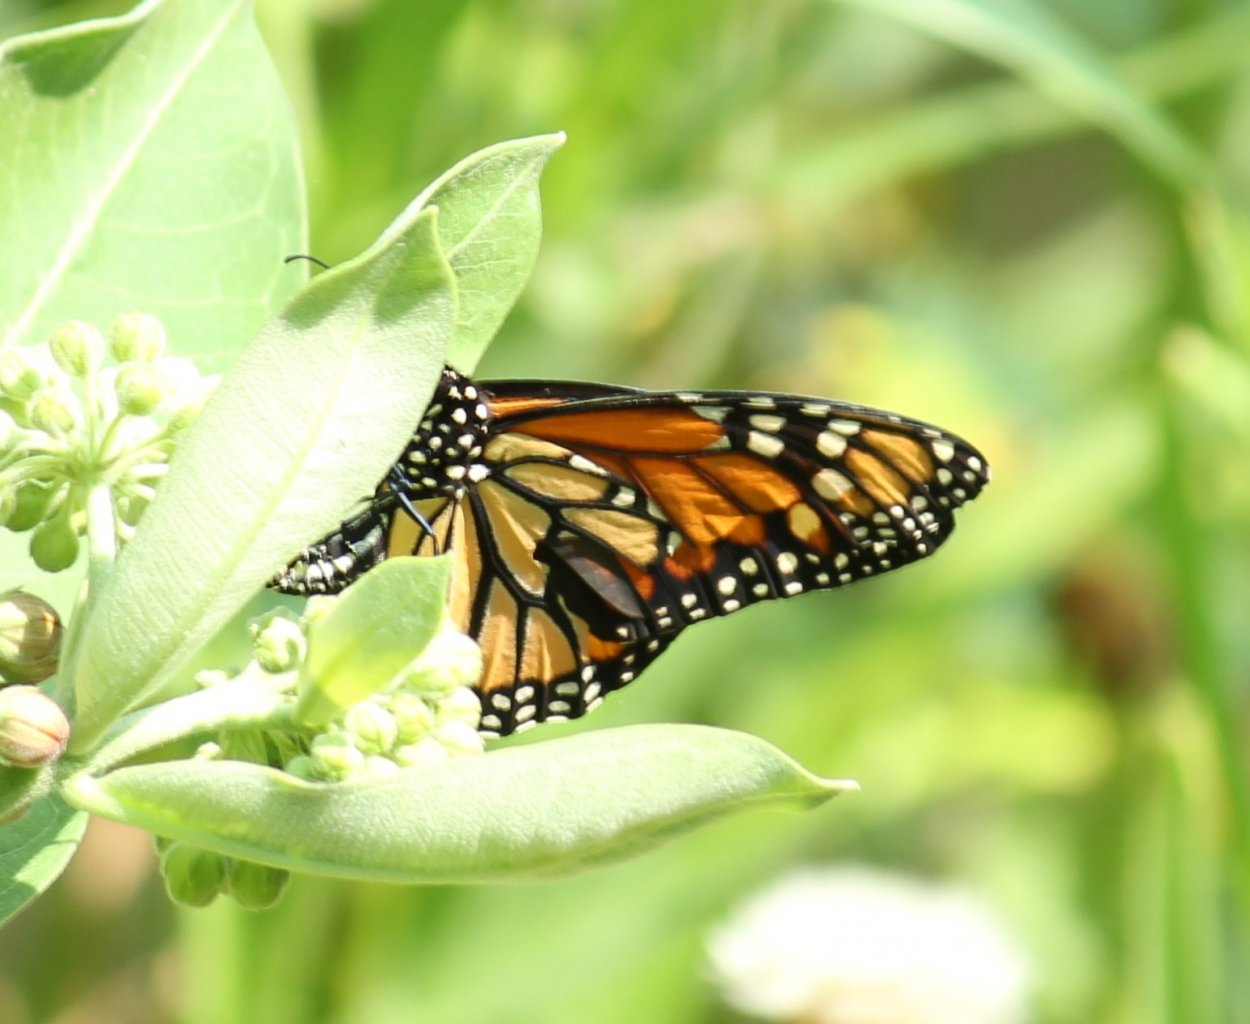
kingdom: Animalia
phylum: Arthropoda
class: Insecta
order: Lepidoptera
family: Nymphalidae
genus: Danaus
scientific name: Danaus plexippus
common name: Monarch
